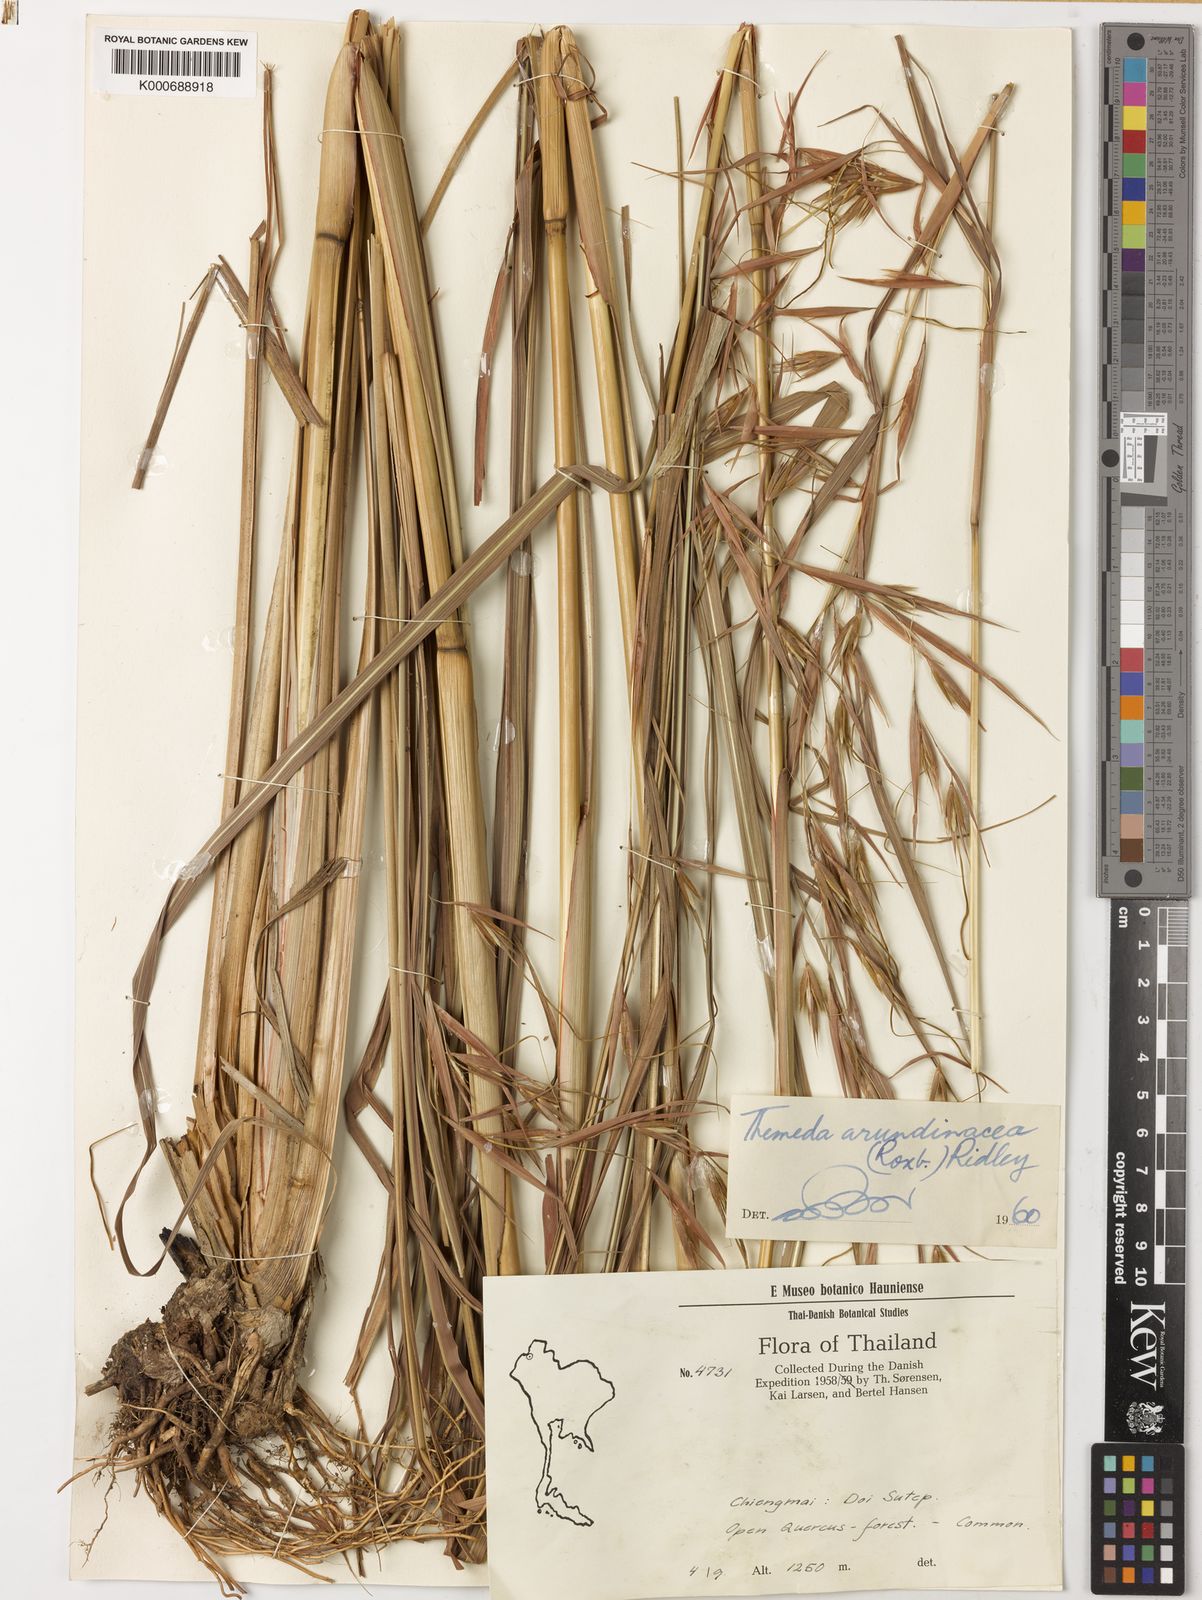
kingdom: Plantae
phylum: Tracheophyta
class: Liliopsida
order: Poales
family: Poaceae
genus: Themeda
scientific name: Themeda arundinacea
